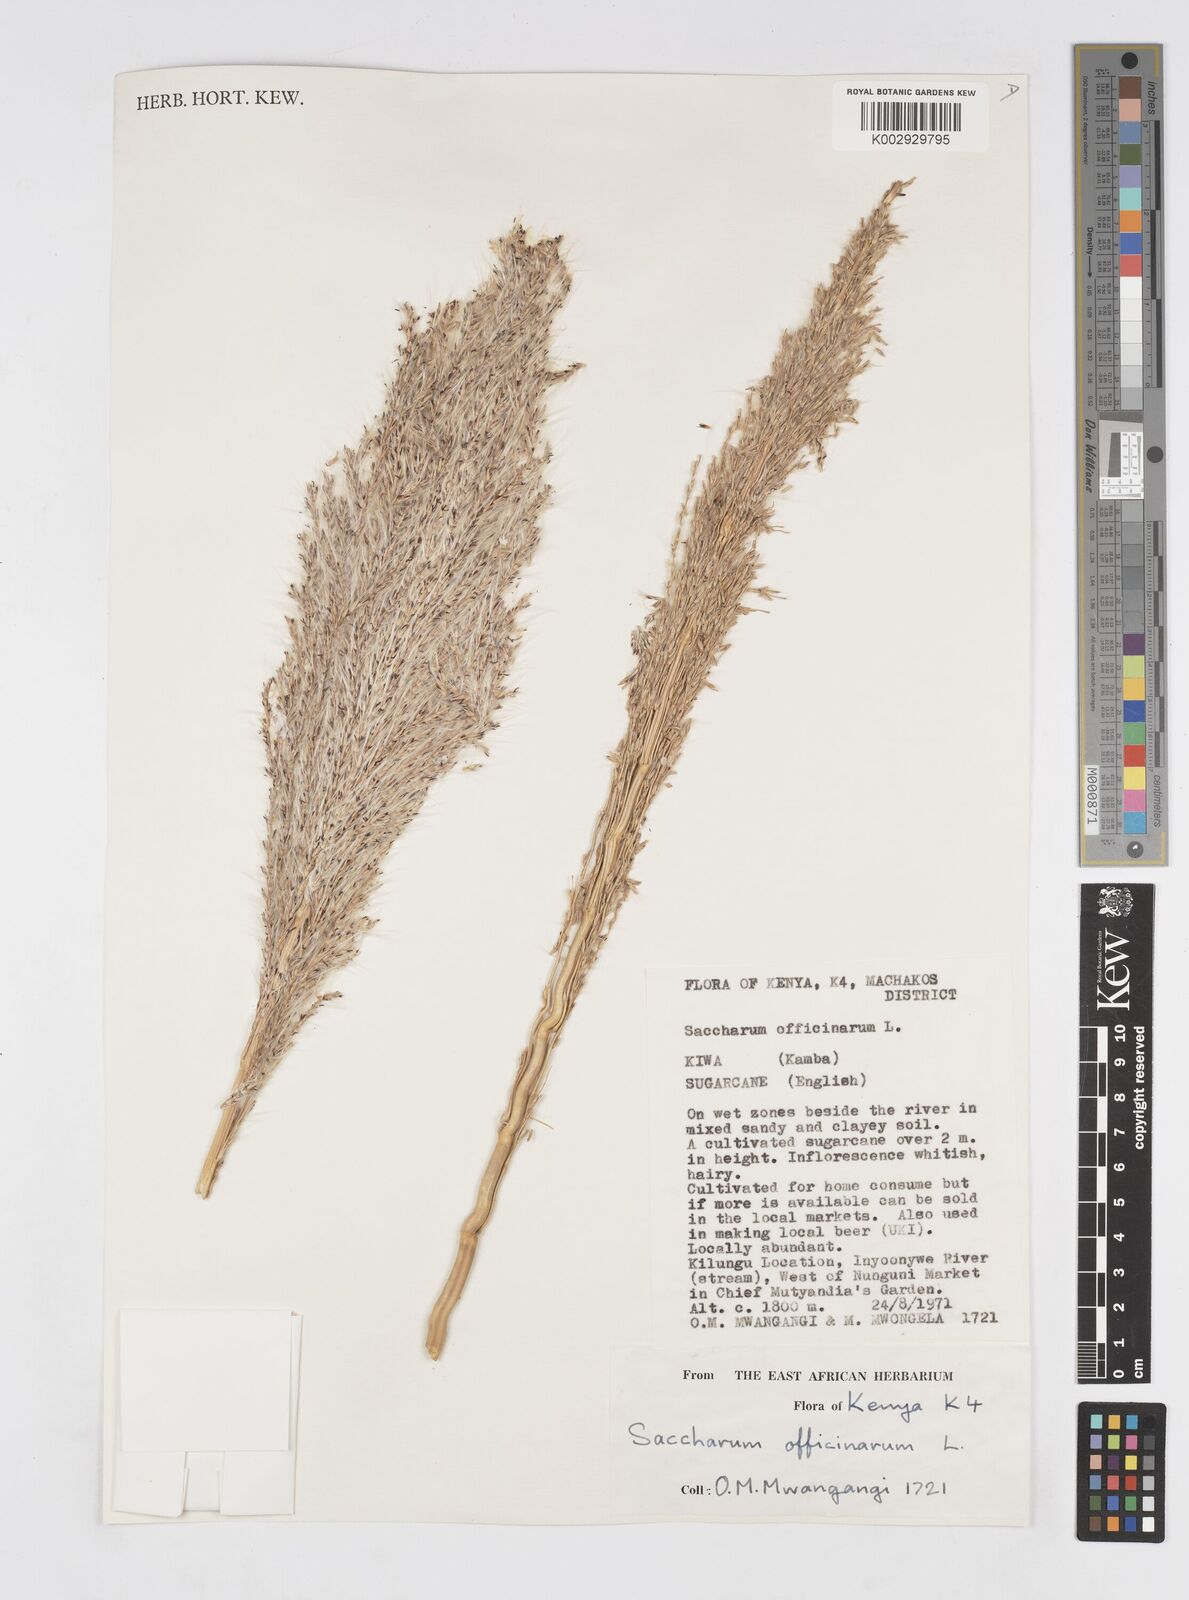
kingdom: Plantae
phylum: Tracheophyta
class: Liliopsida
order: Poales
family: Poaceae
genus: Saccharum
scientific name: Saccharum officinarum
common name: Sugarcane
